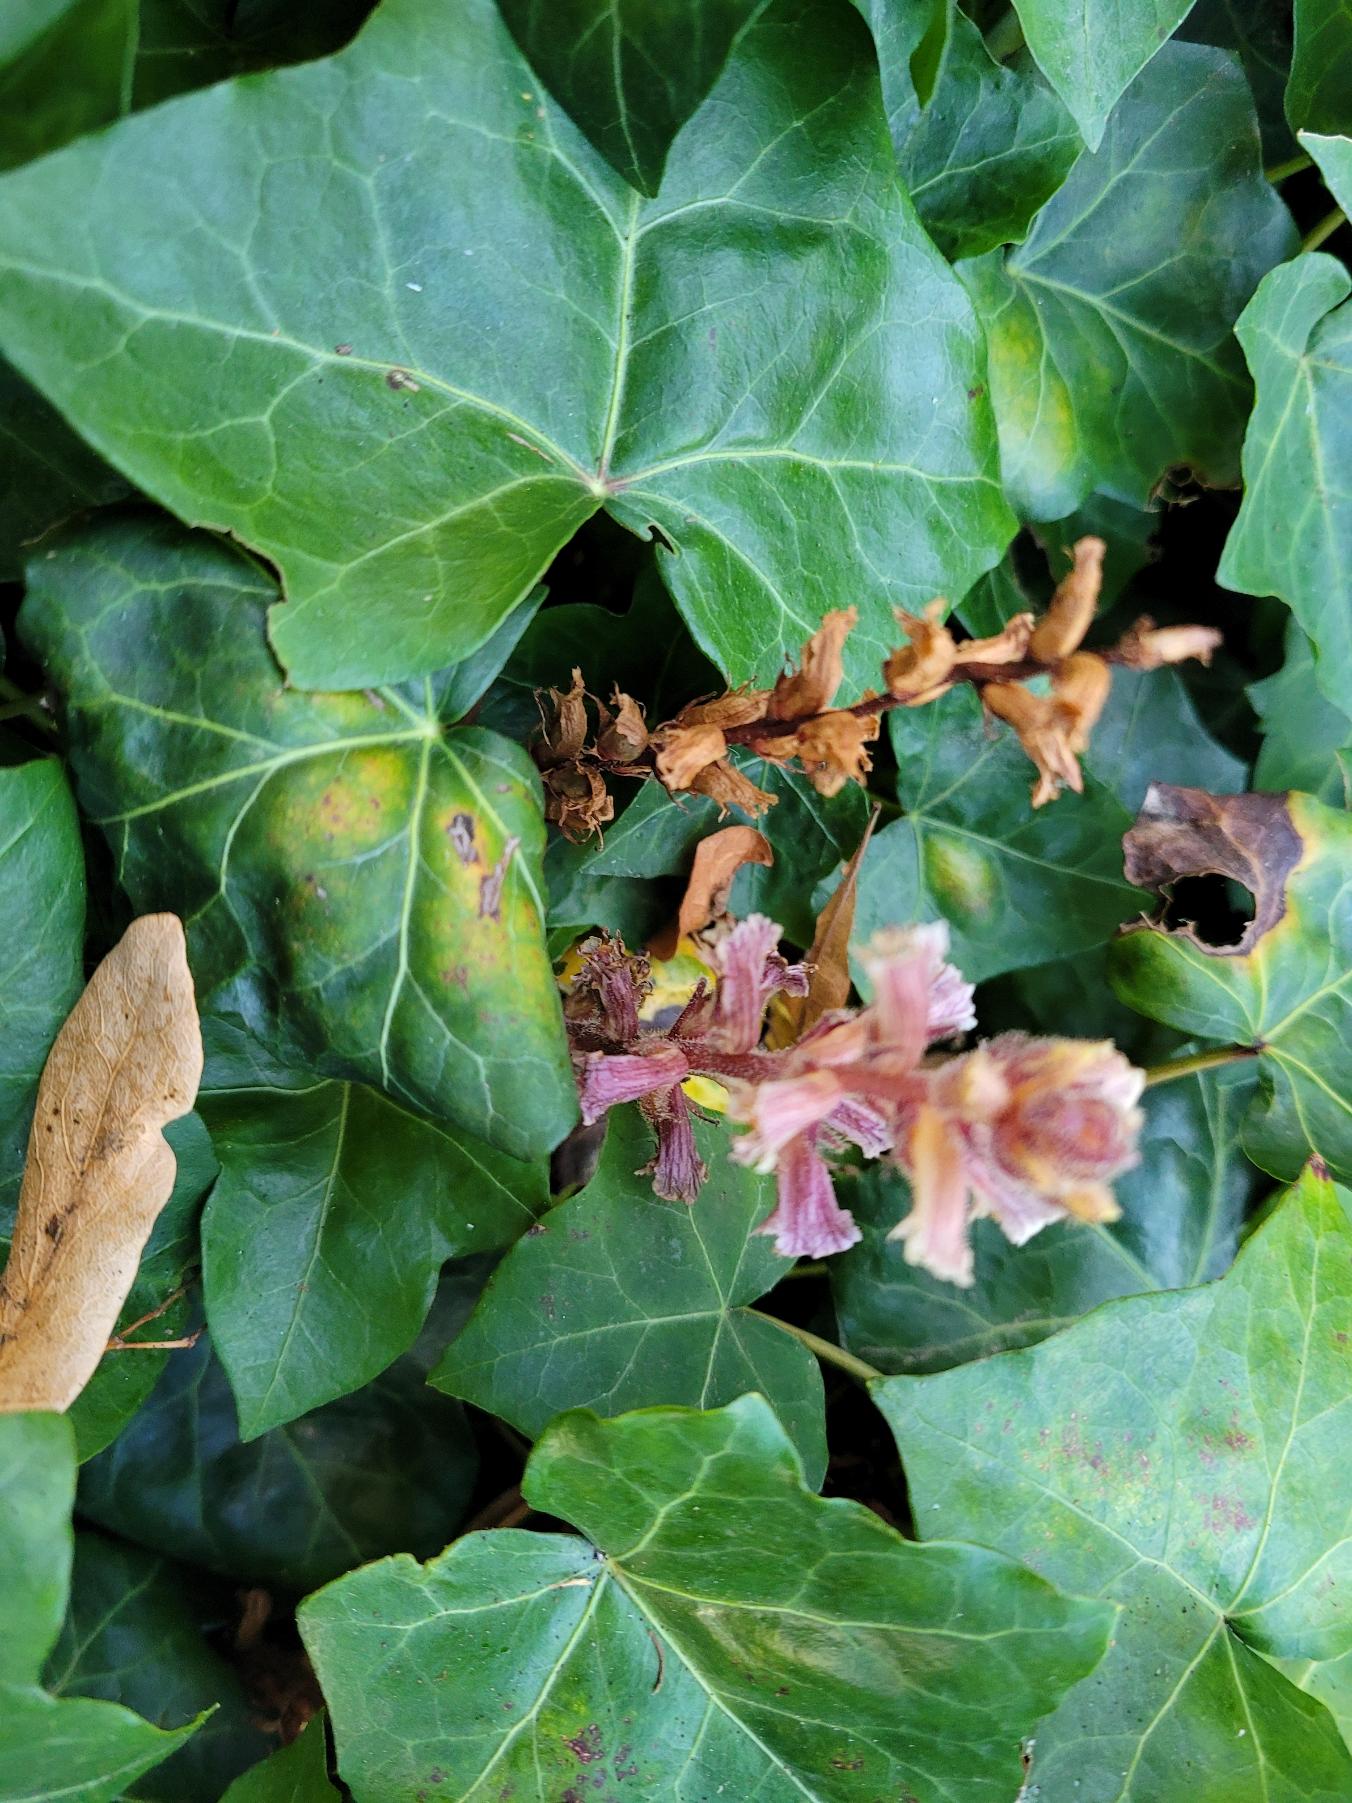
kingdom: Plantae
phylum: Tracheophyta
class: Magnoliopsida
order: Lamiales
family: Orobanchaceae
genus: Orobanche
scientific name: Orobanche hederae
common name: Vedbend-gyvelkvæler
